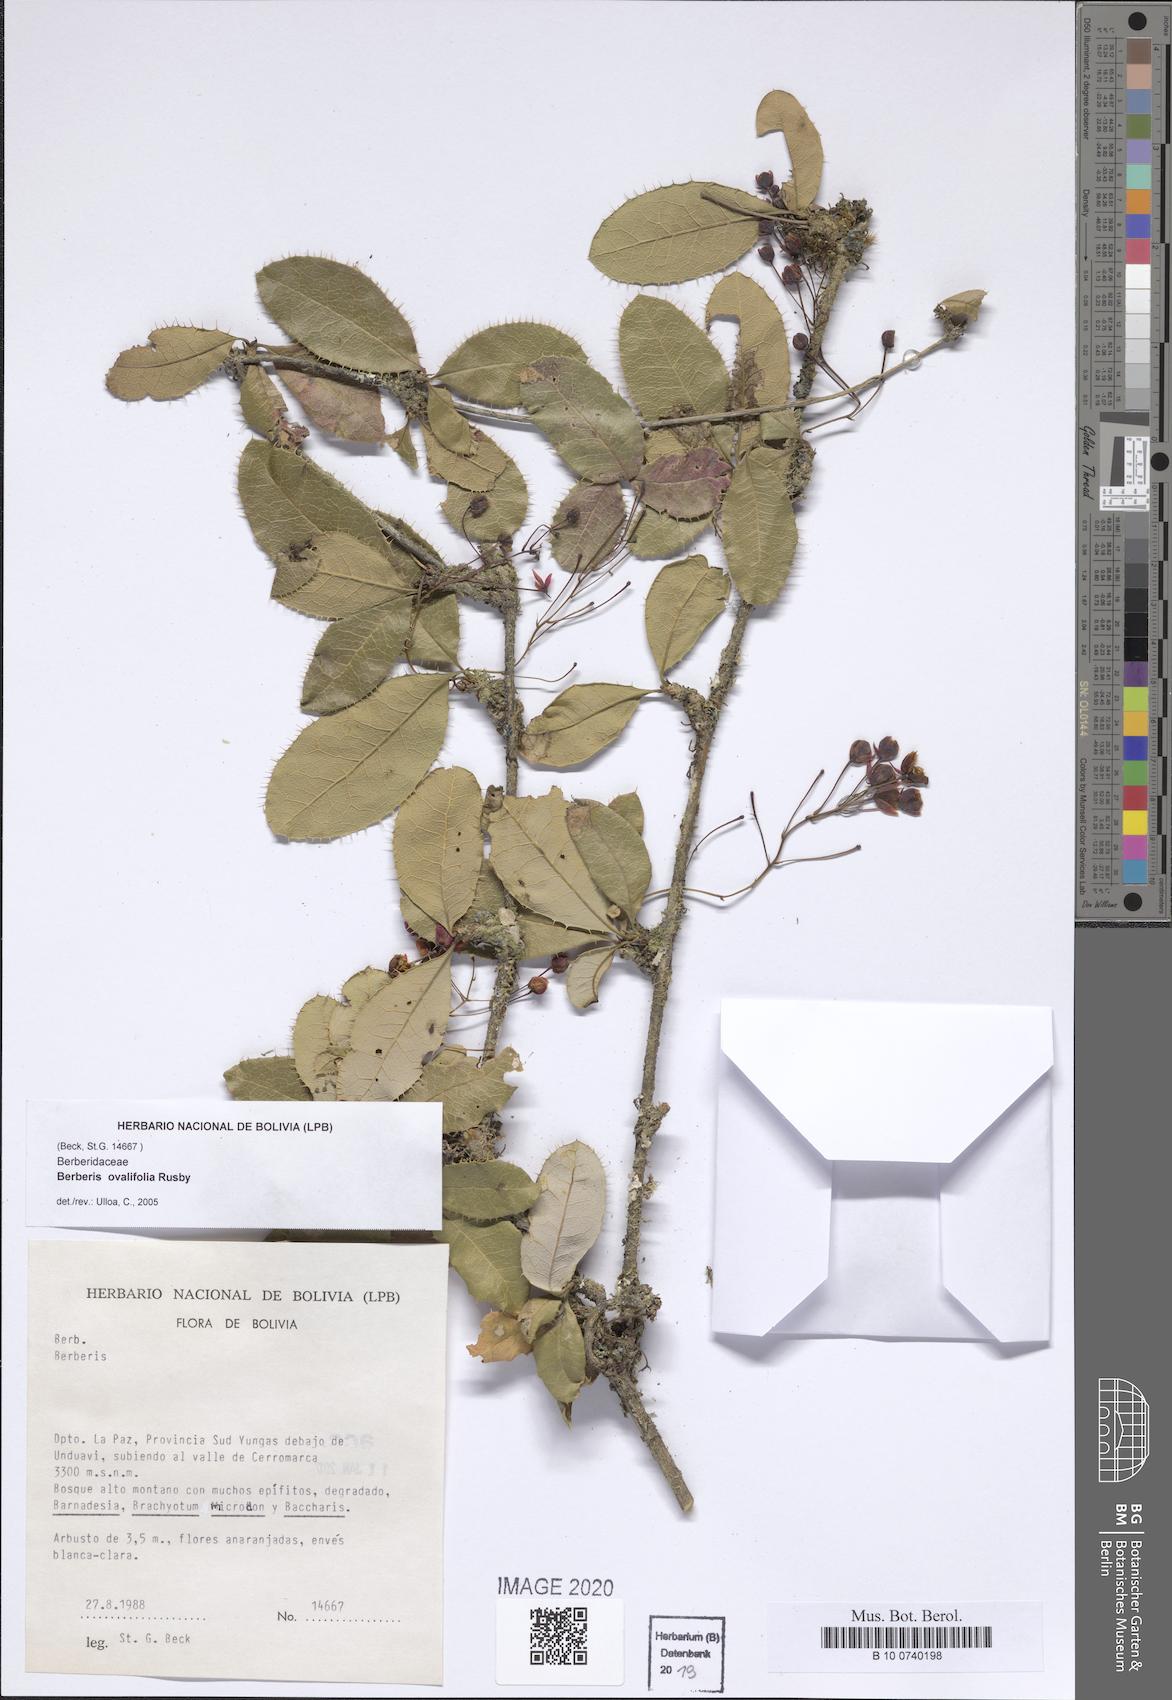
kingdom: Plantae
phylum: Tracheophyta
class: Magnoliopsida
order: Ranunculales
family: Berberidaceae
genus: Berberis
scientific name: Berberis ovalifolia
